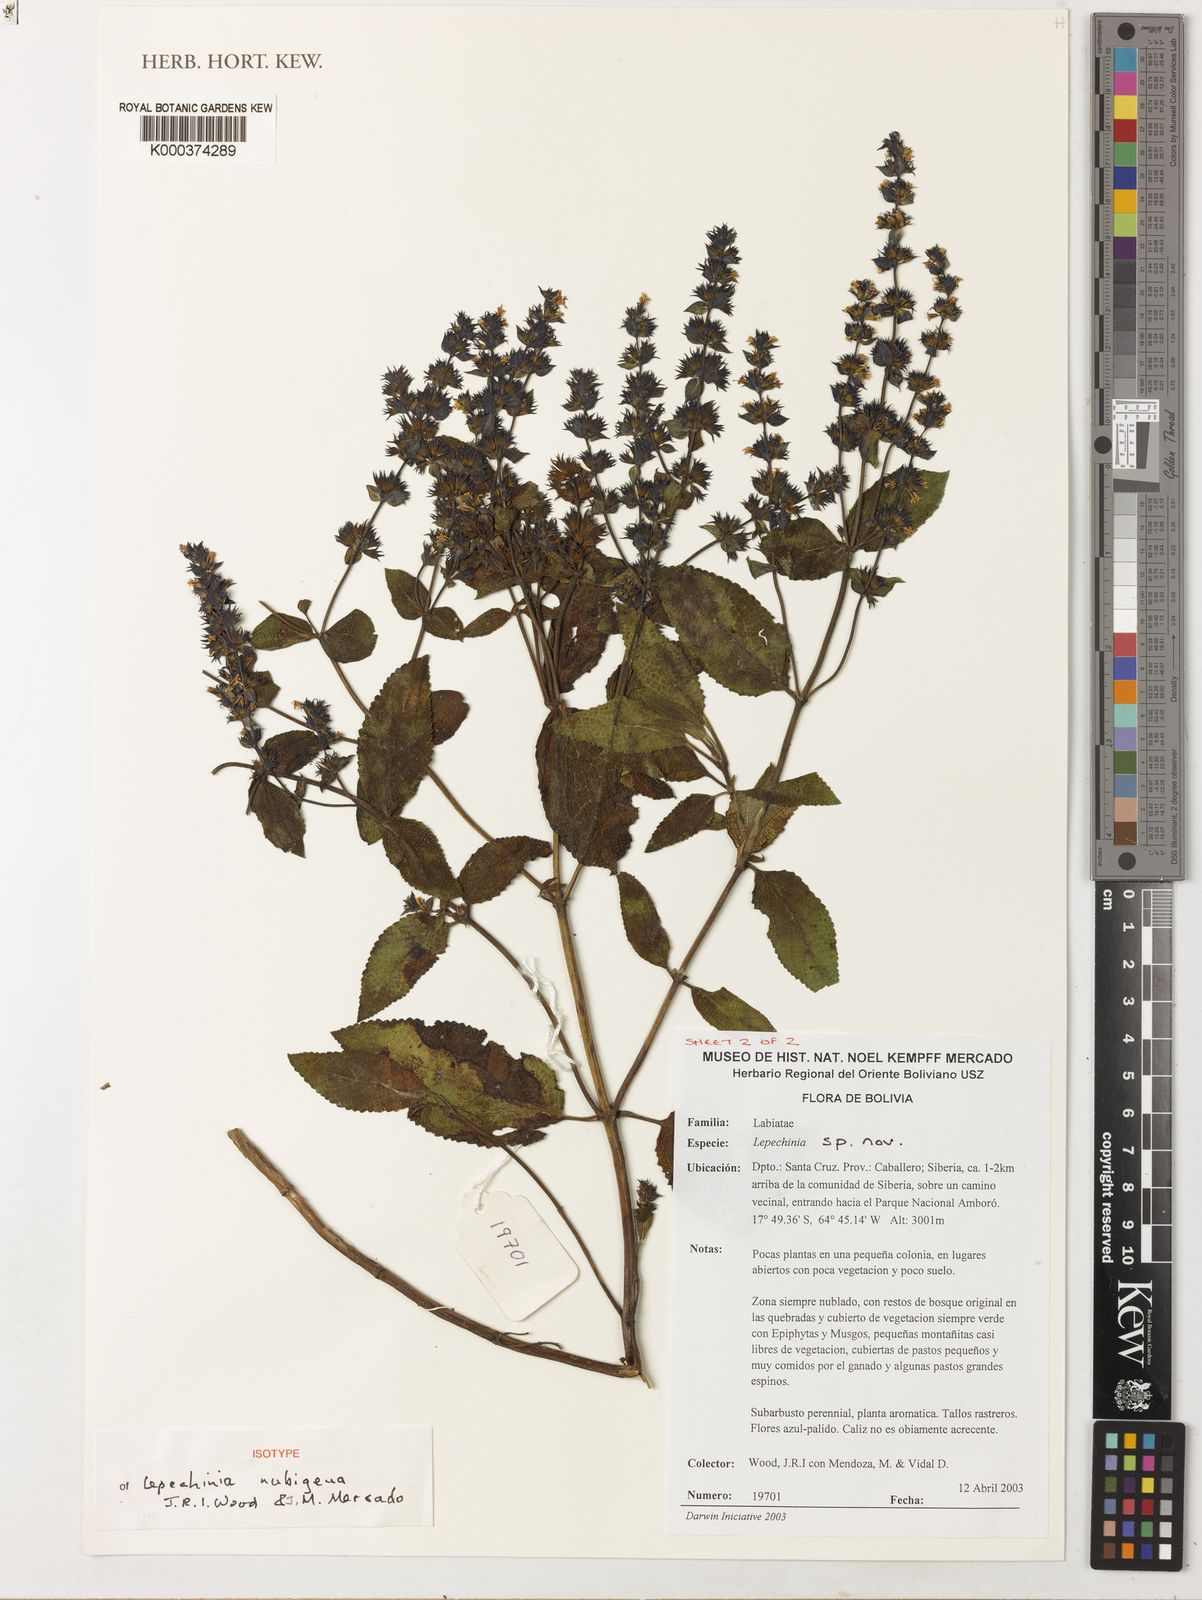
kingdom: Plantae
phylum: Tracheophyta
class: Magnoliopsida
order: Lamiales
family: Lamiaceae
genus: Lepechinia
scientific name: Lepechinia nubigena
